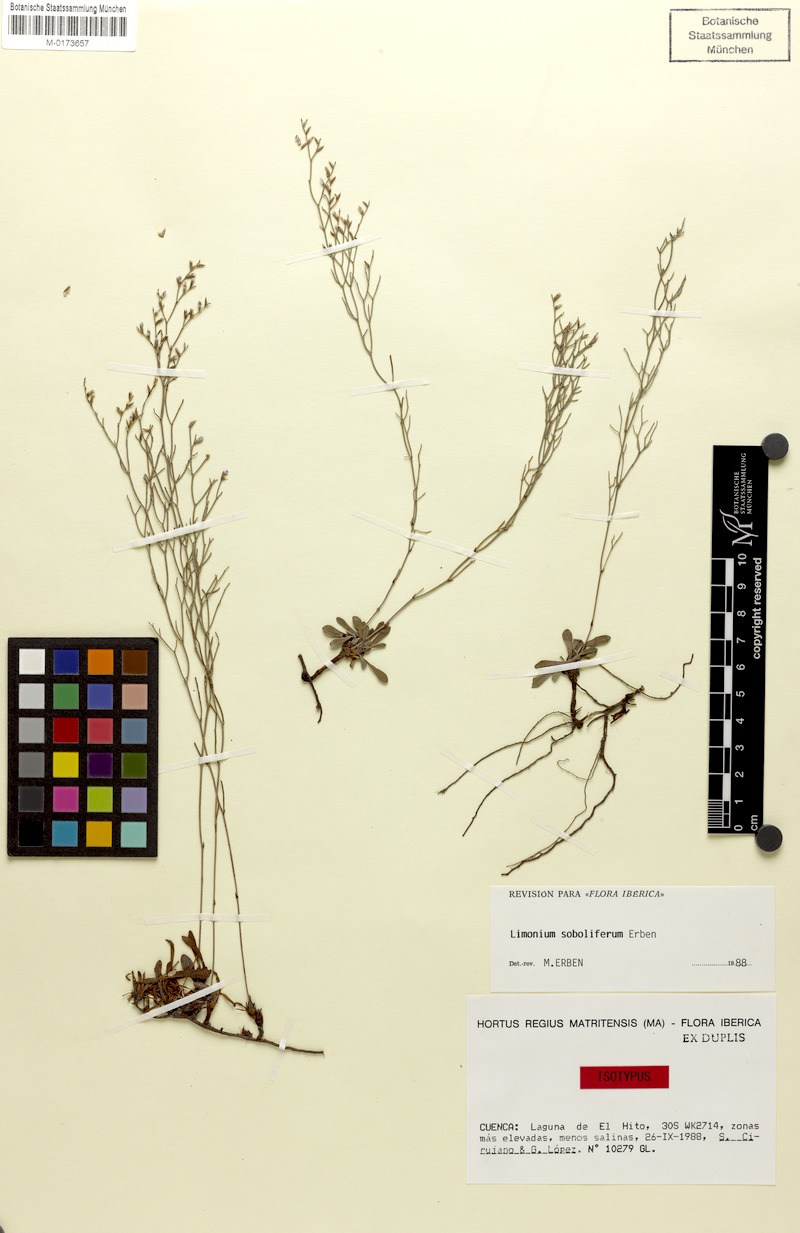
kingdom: Plantae
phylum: Tracheophyta
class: Magnoliopsida
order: Caryophyllales
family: Plumbaginaceae
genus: Limonium
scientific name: Limonium soboliferum
